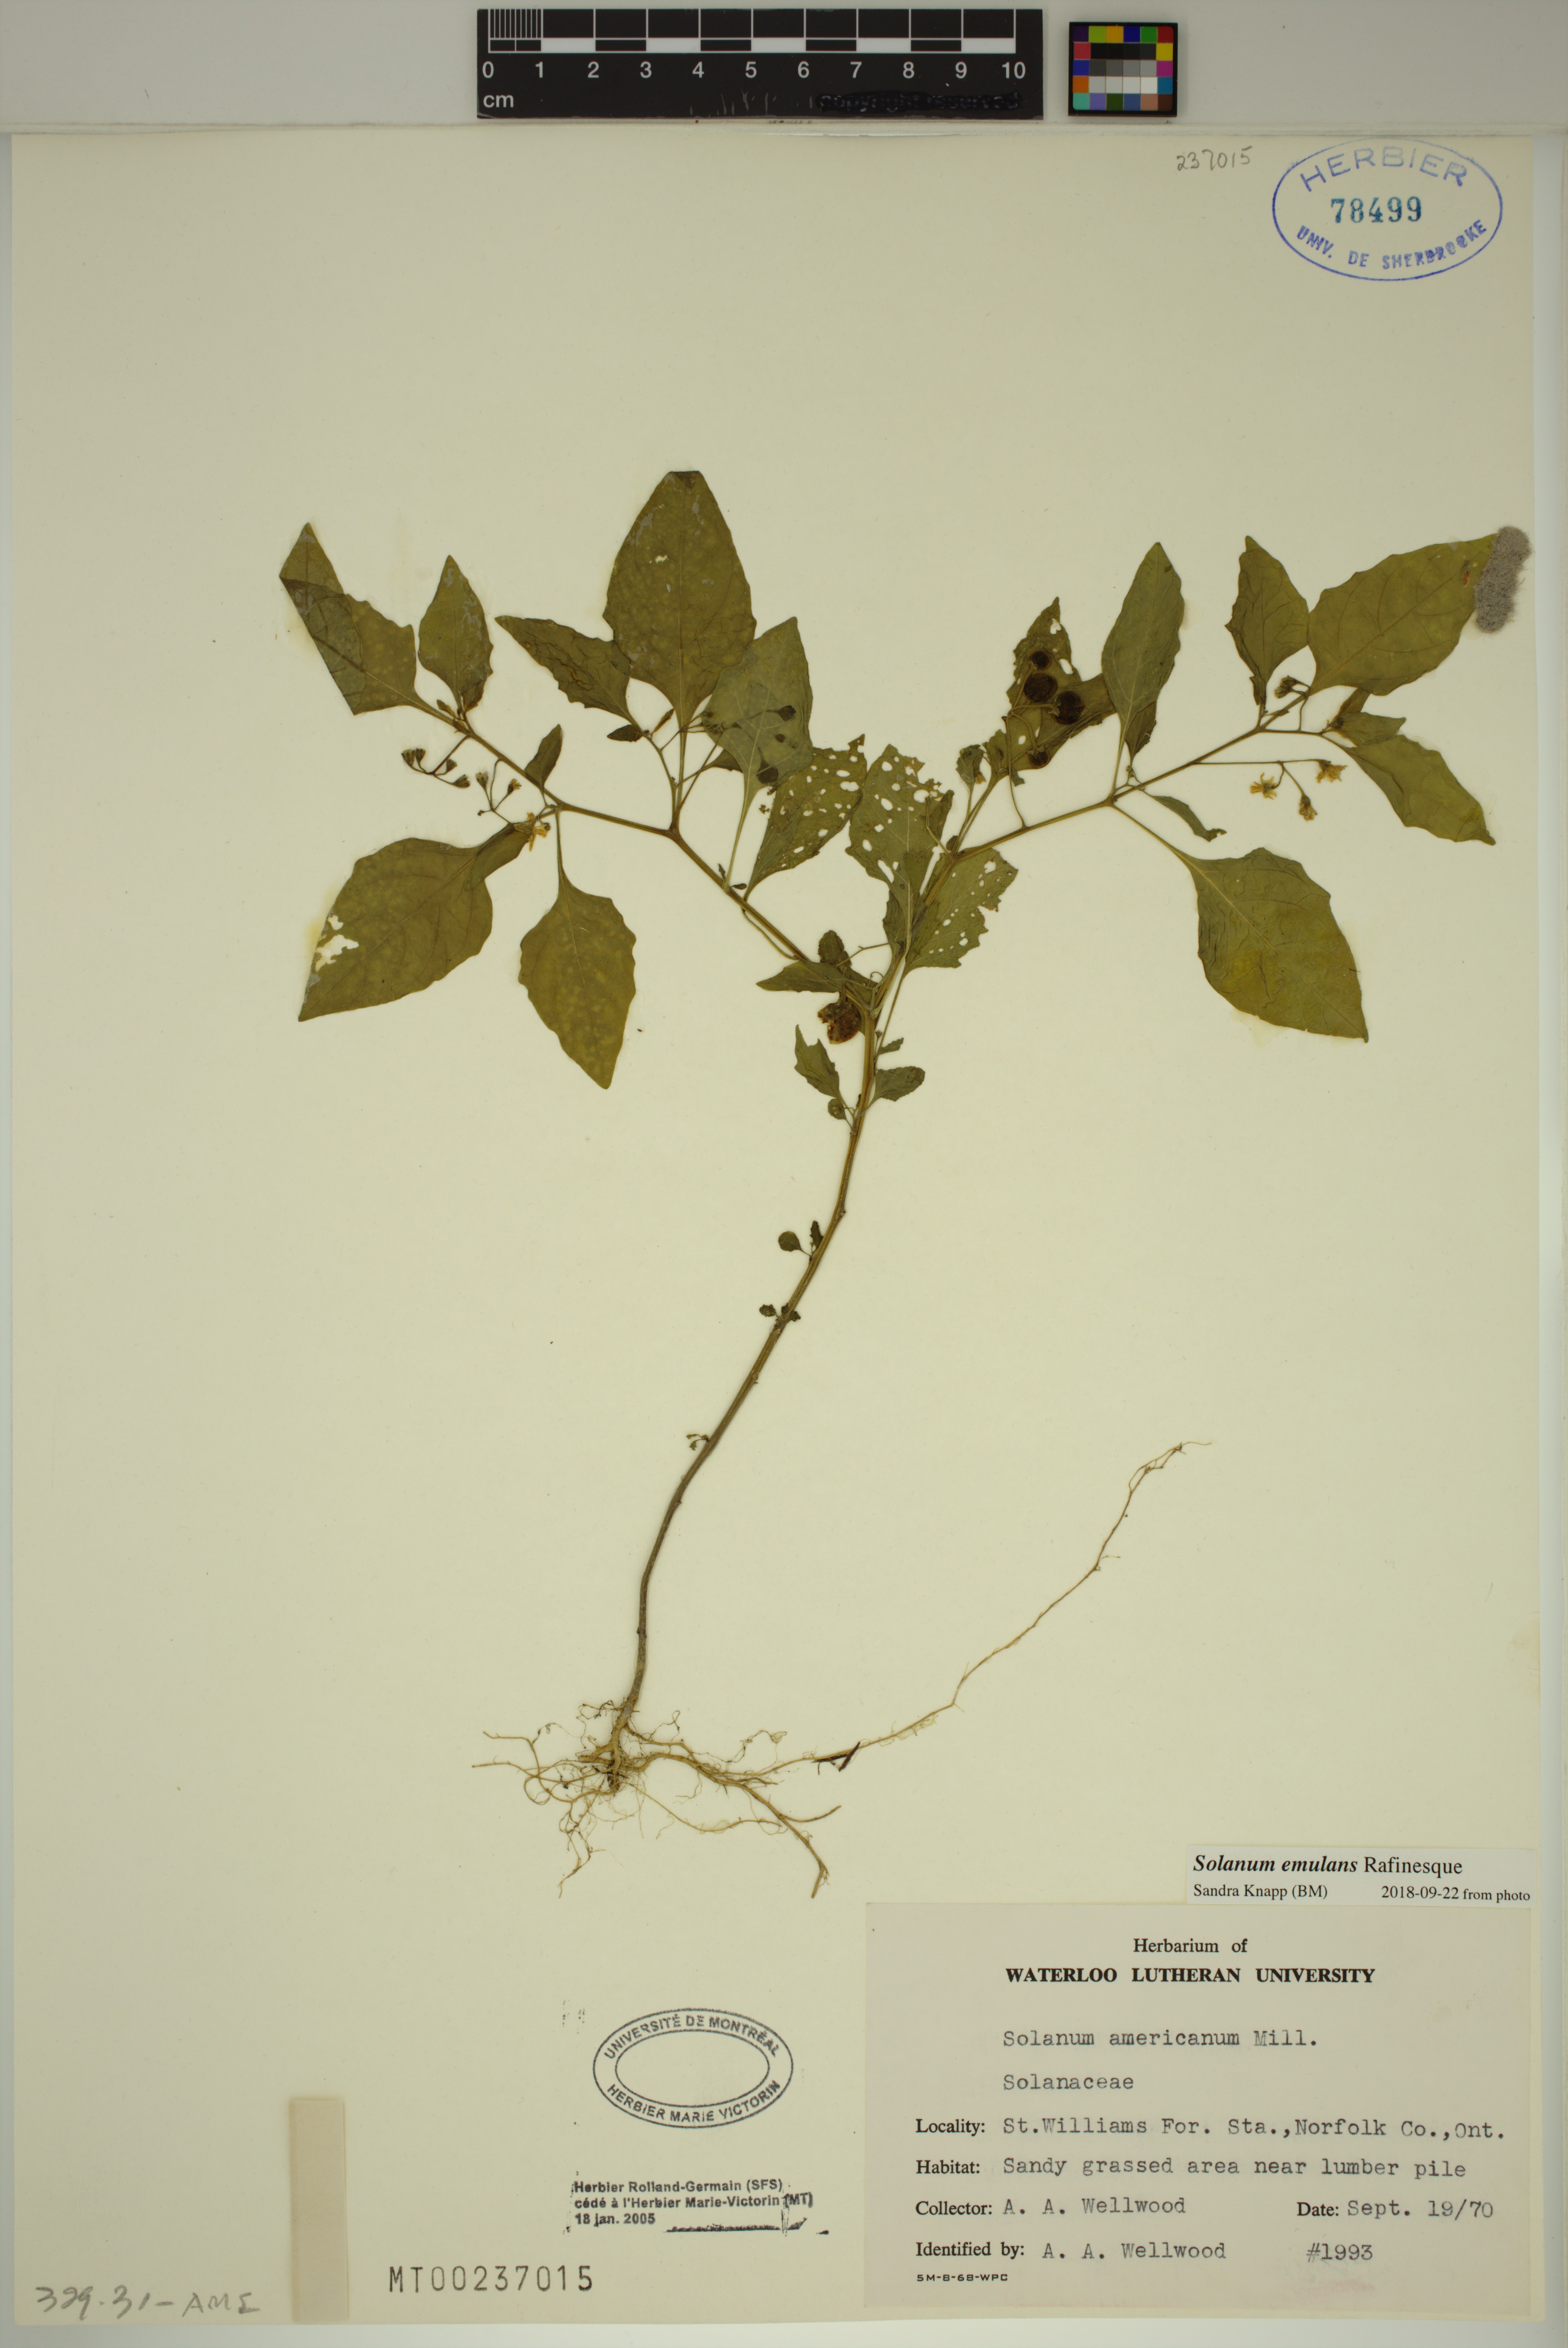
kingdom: Plantae
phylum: Tracheophyta
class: Magnoliopsida
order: Solanales
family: Solanaceae
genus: Solanum
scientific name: Solanum emulans
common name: Eastern black nightshade
